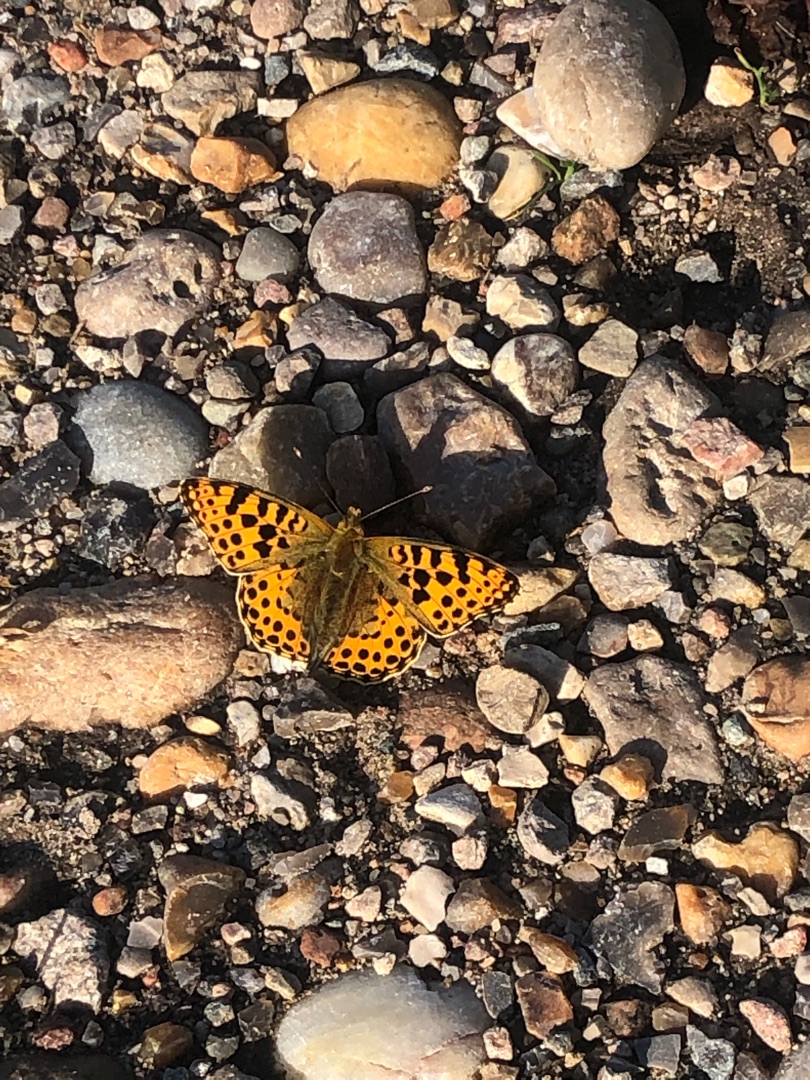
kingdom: Animalia
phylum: Arthropoda
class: Insecta
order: Lepidoptera
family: Nymphalidae
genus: Issoria
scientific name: Issoria lathonia
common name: Storplettet perlemorsommerfugl
